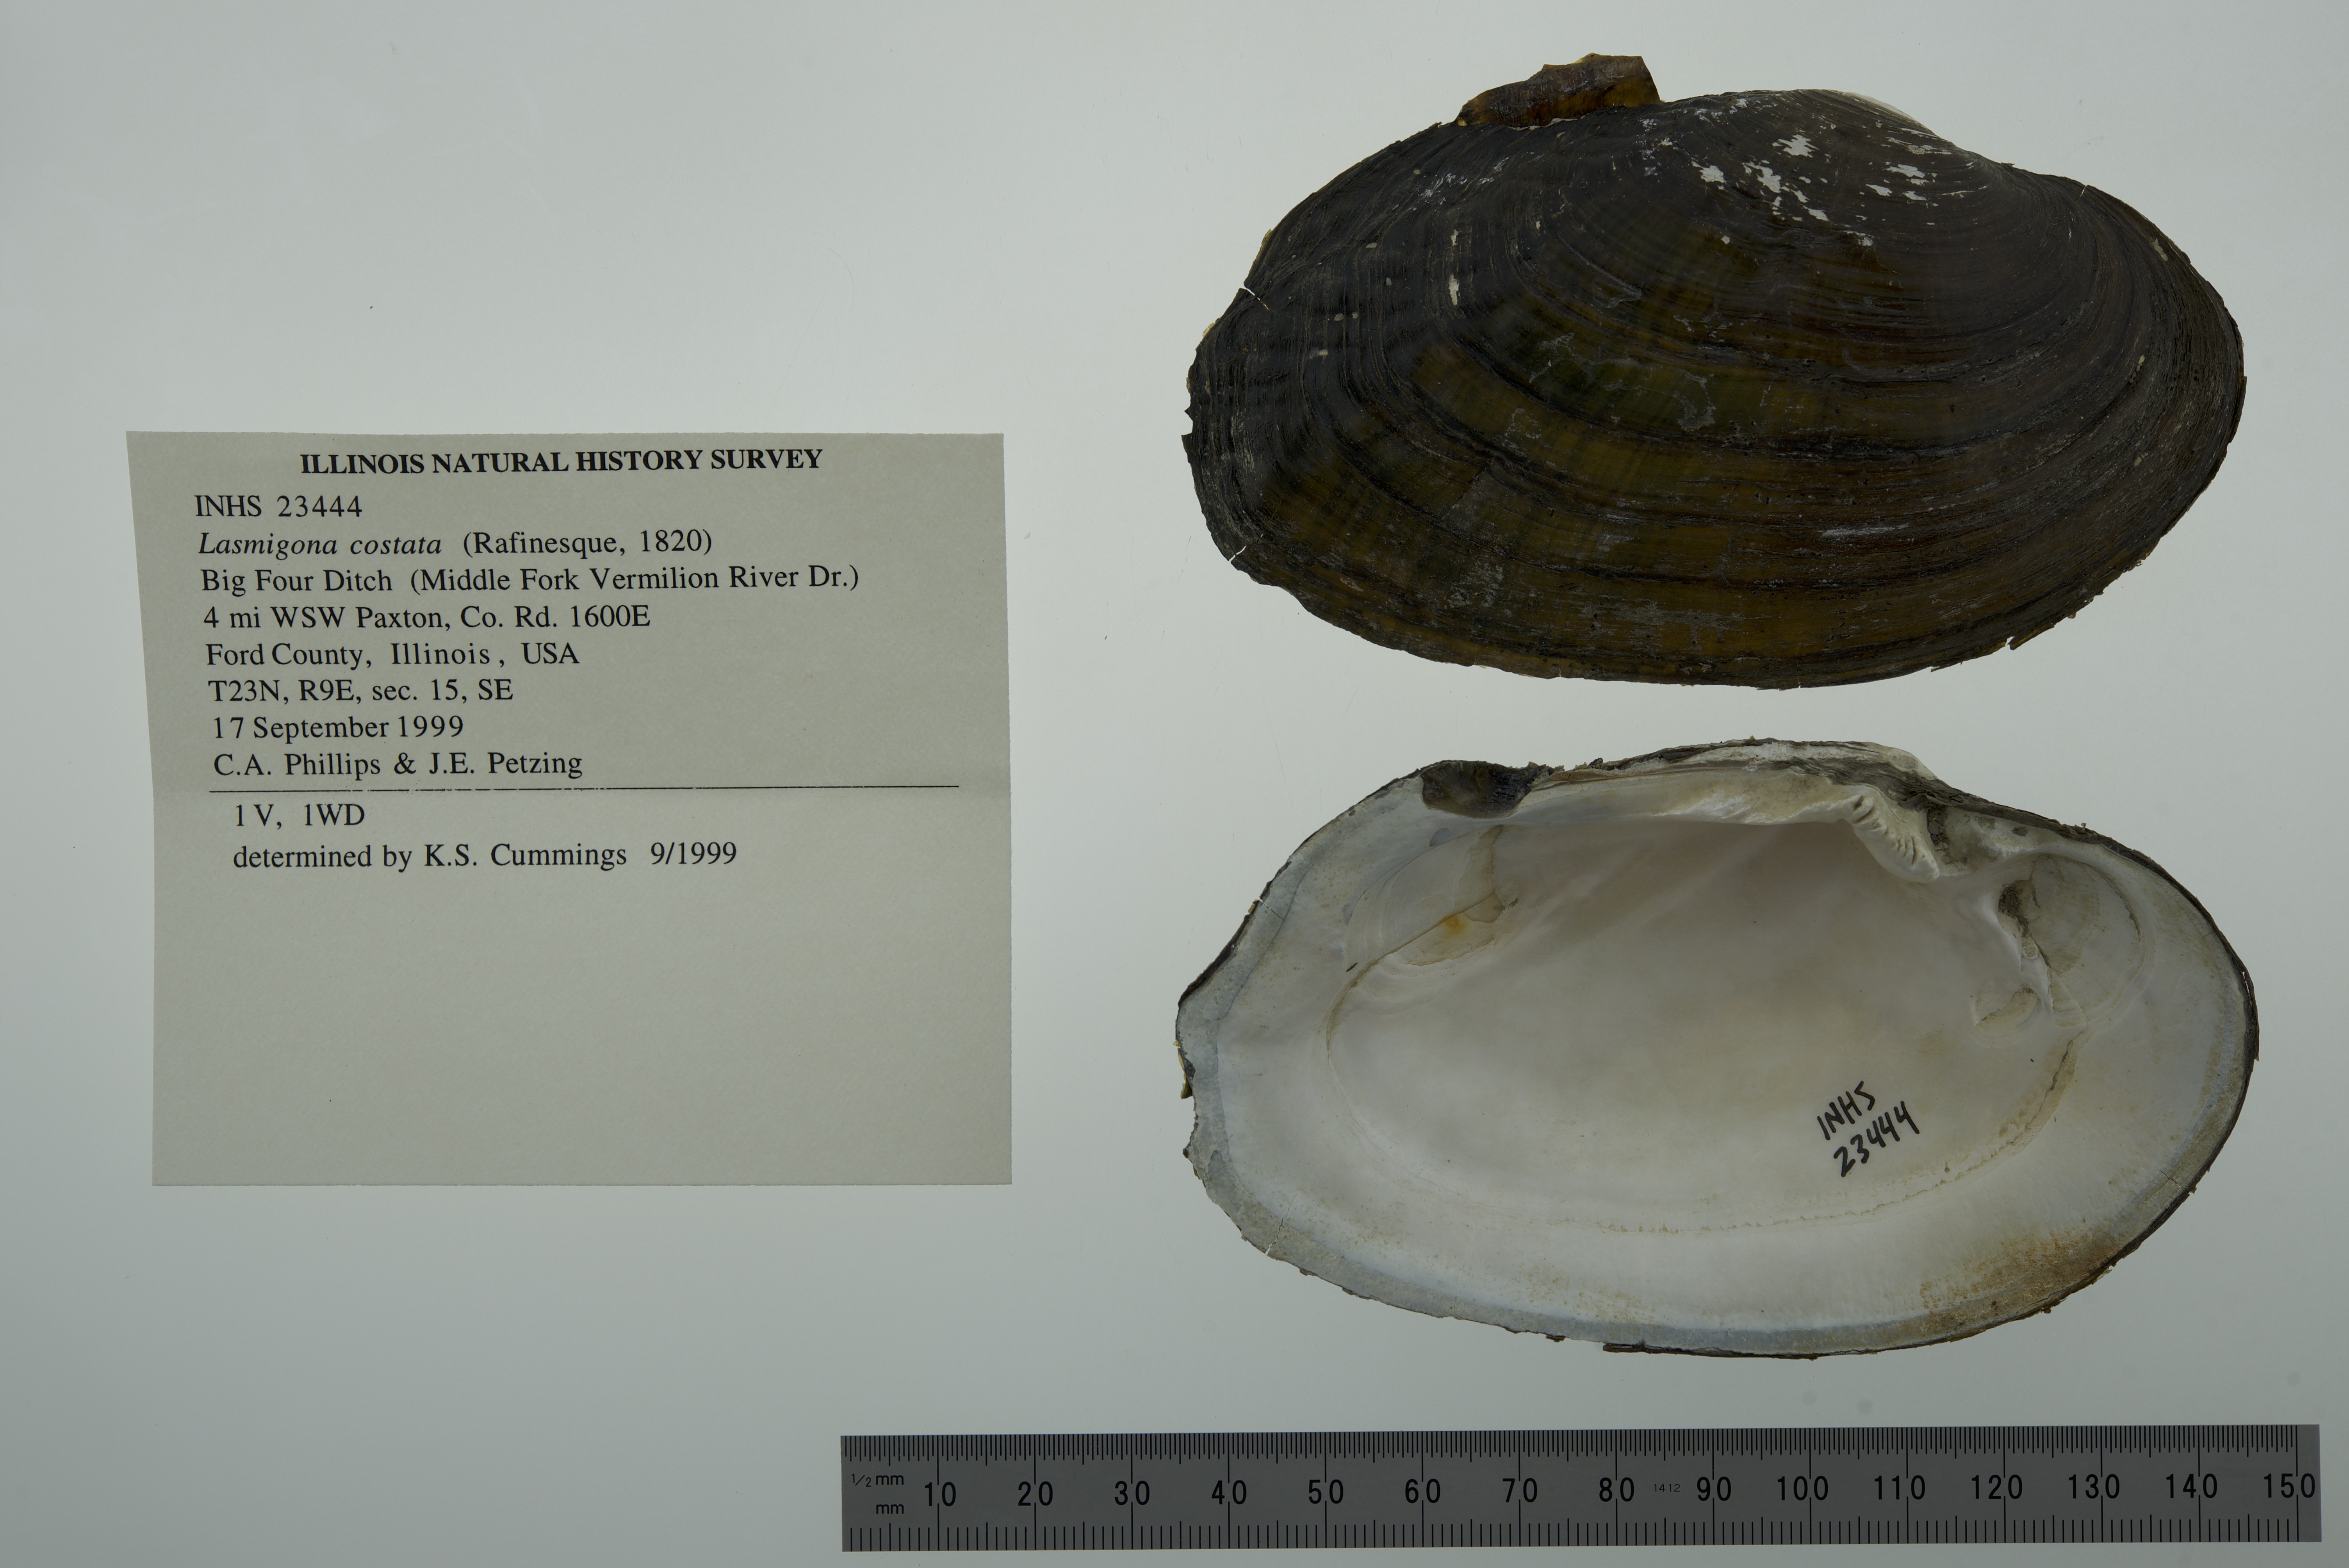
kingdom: Animalia
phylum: Mollusca
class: Bivalvia
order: Unionida
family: Unionidae
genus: Lasmigona
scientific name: Lasmigona costata
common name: Flutedshell
